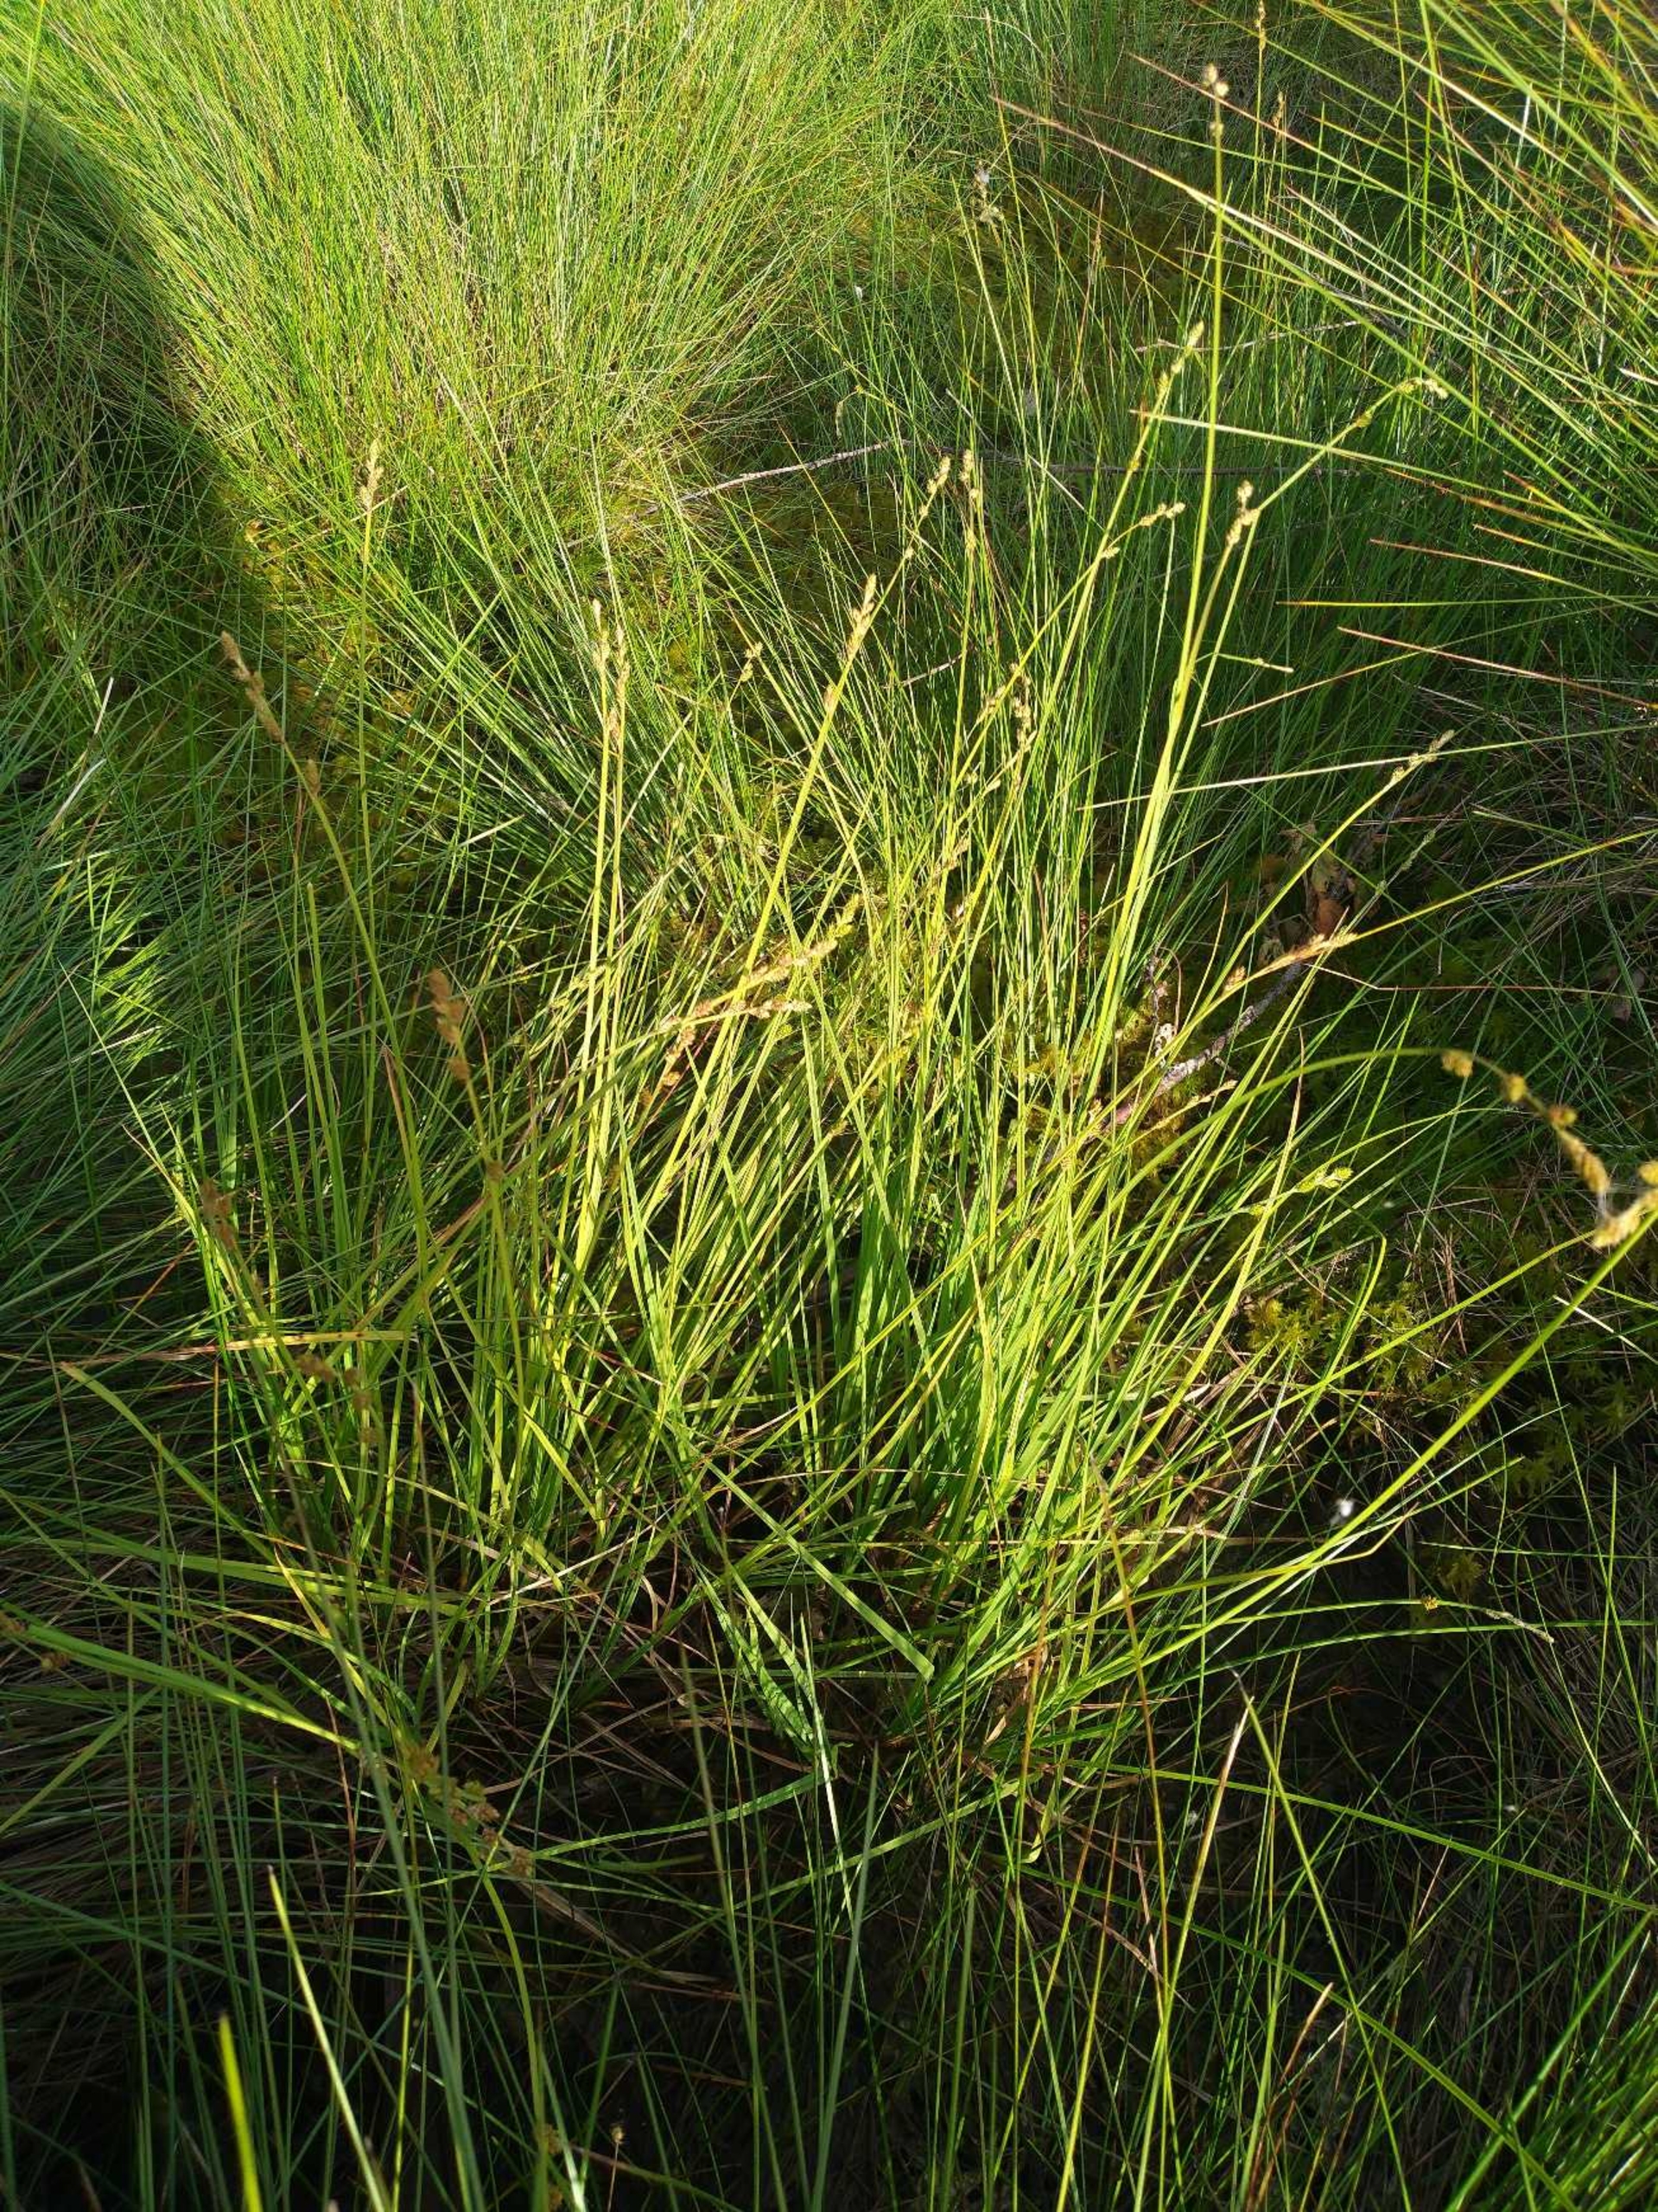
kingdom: Plantae
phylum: Tracheophyta
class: Liliopsida
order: Poales
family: Cyperaceae
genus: Carex
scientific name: Carex canescens
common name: Grå star
